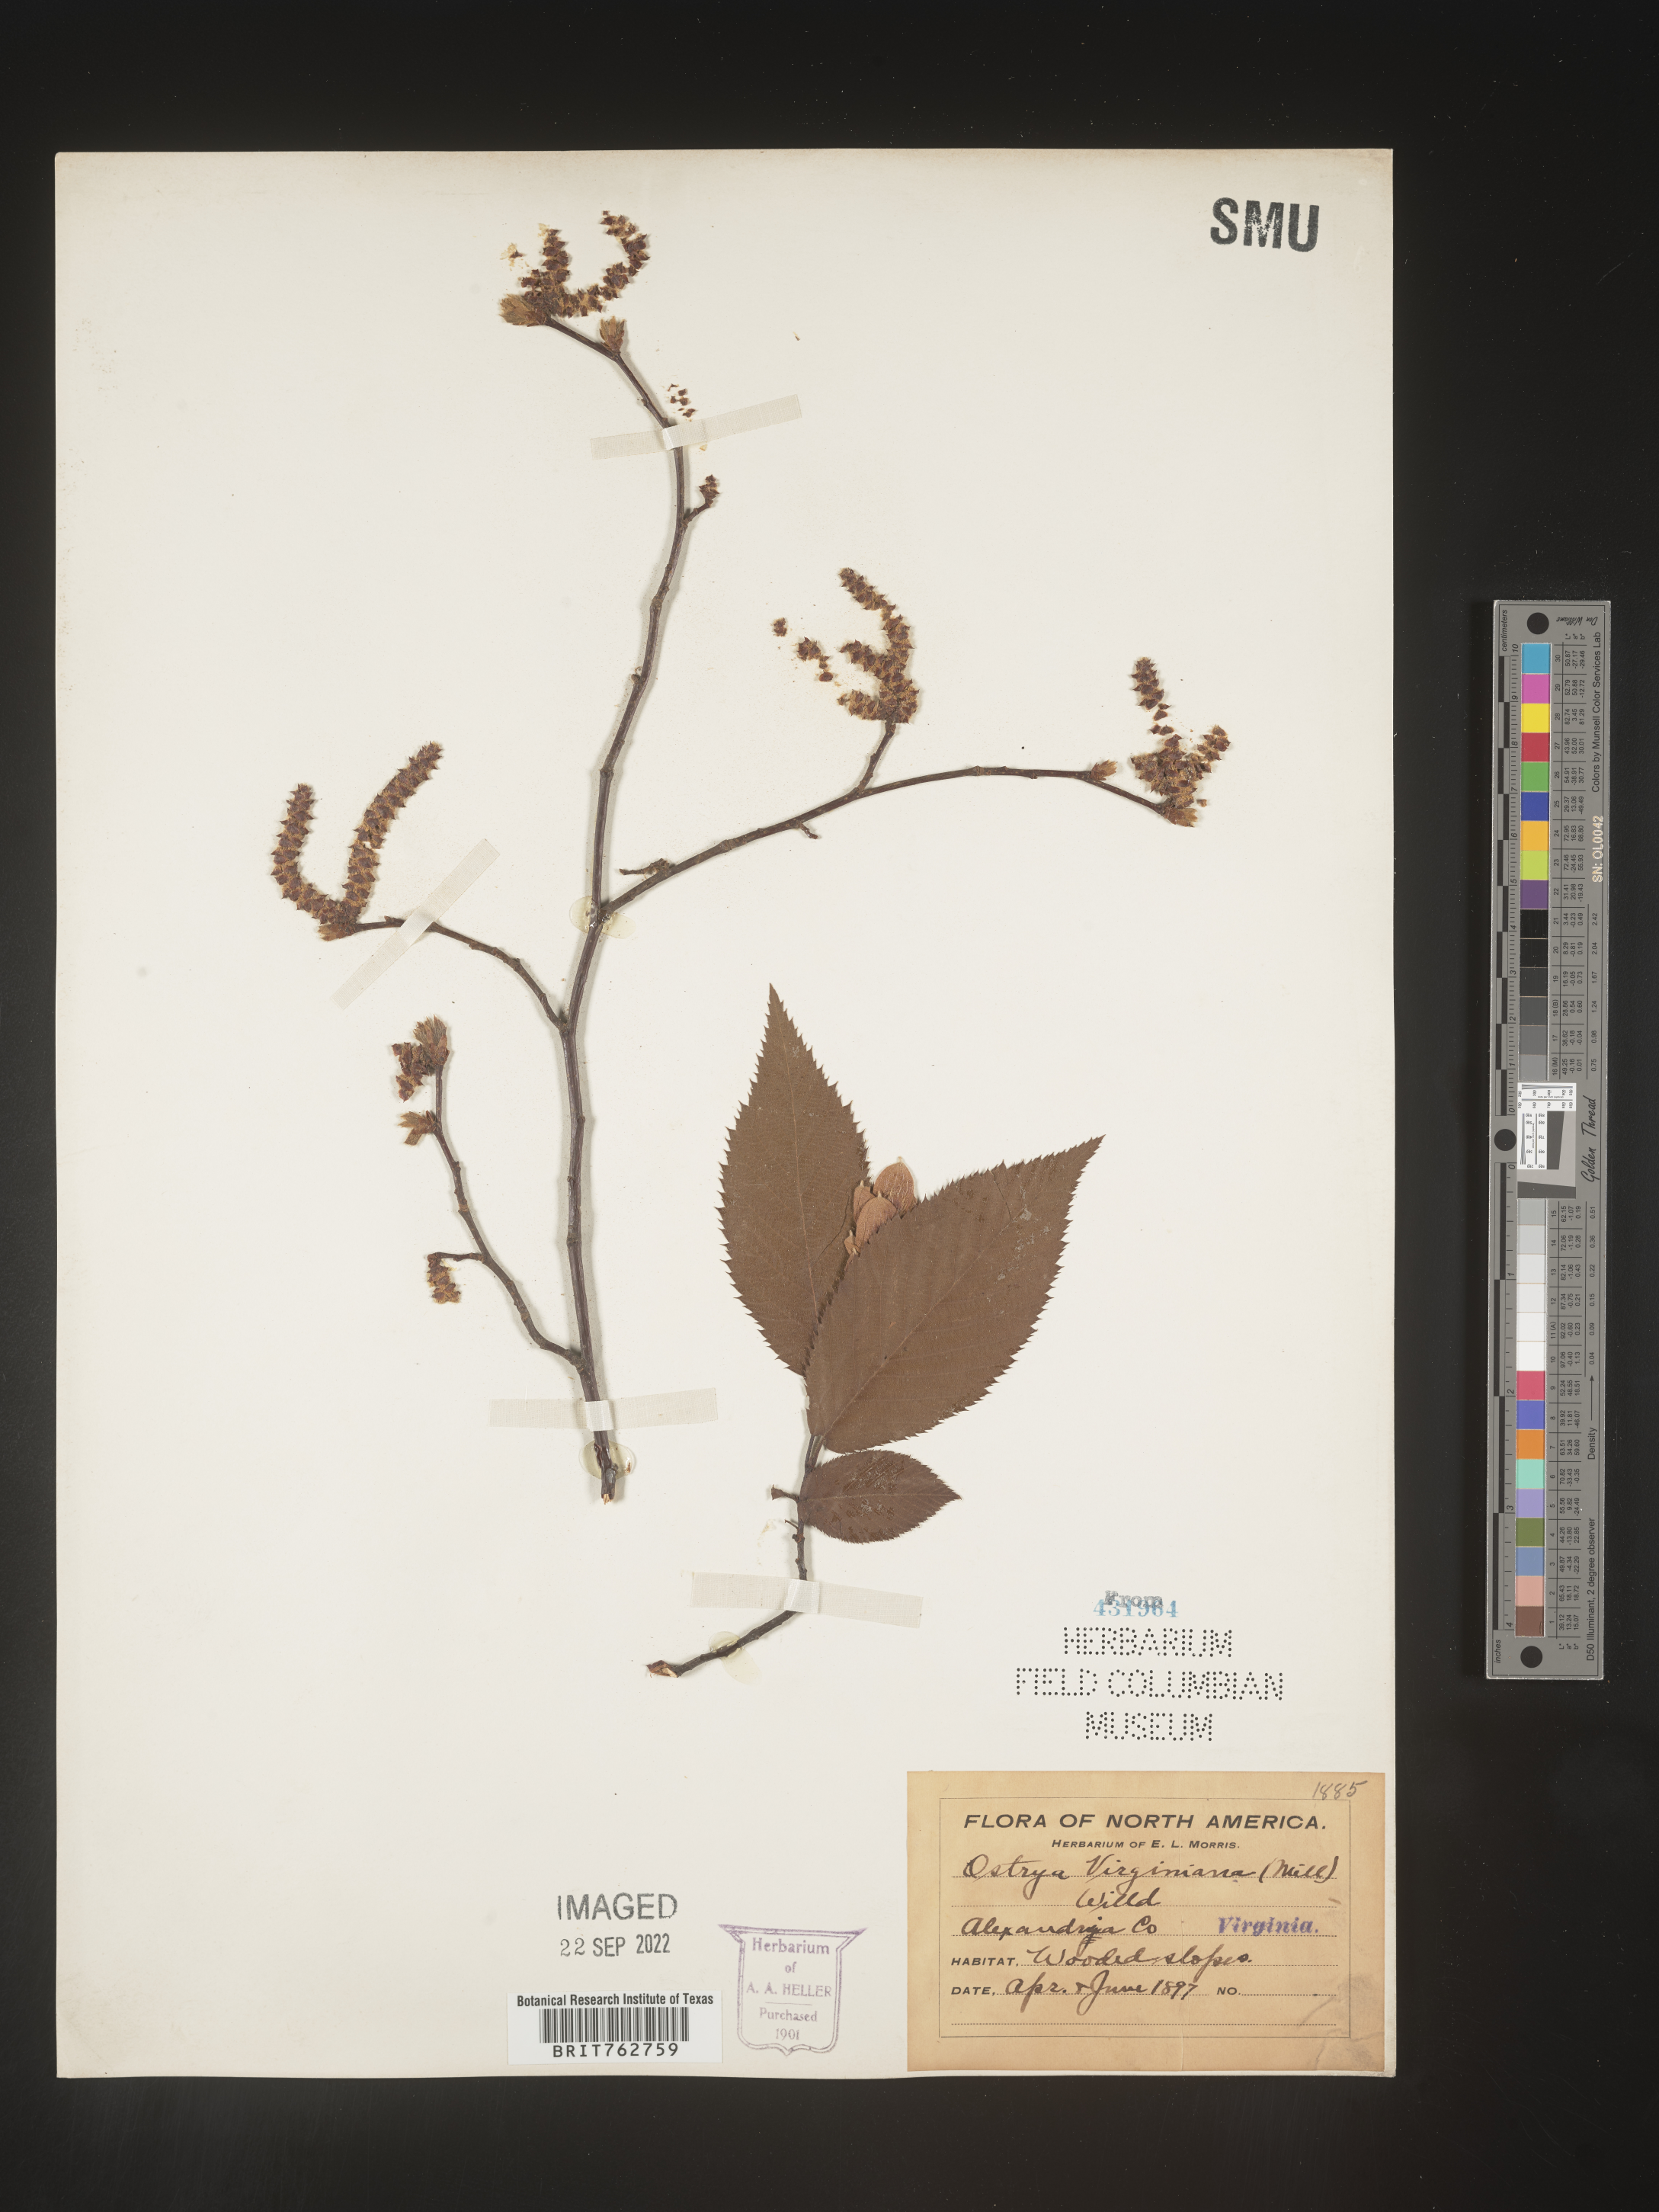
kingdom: Plantae
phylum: Tracheophyta
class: Magnoliopsida
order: Fagales
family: Betulaceae
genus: Ostrya
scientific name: Ostrya virginiana
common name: Ironwood
